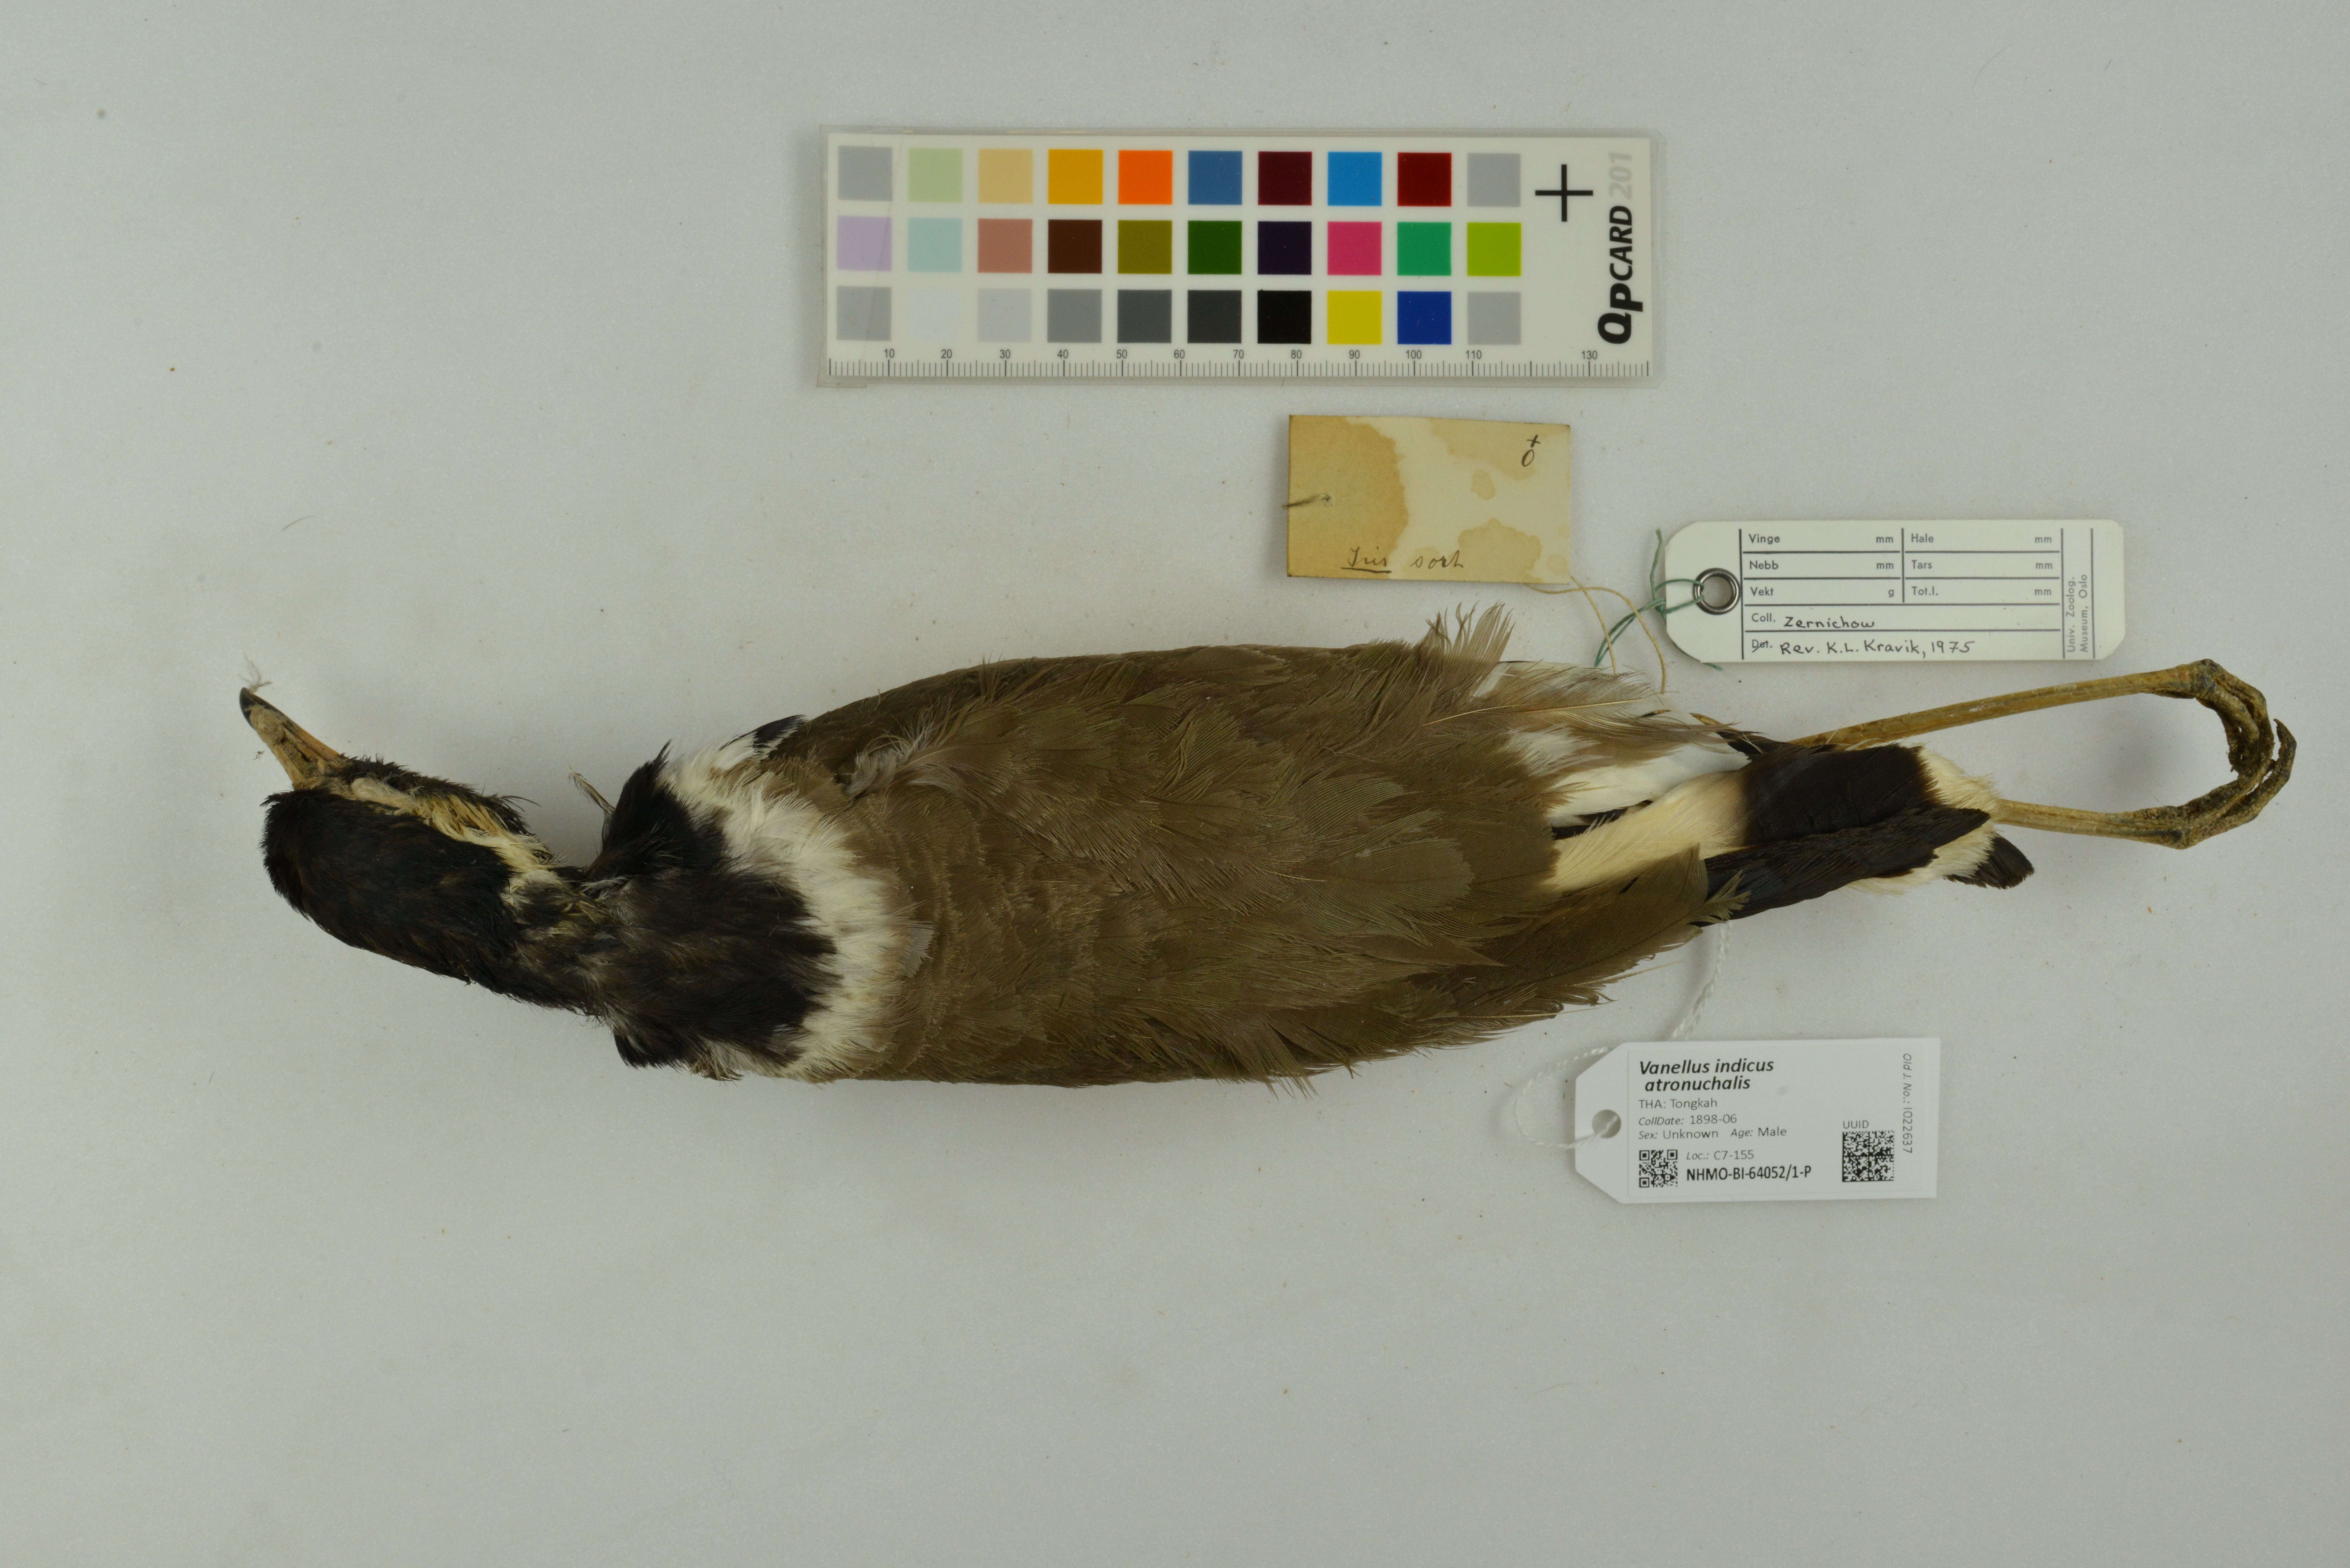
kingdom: Animalia
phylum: Chordata
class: Aves
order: Charadriiformes
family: Charadriidae
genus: Vanellus
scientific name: Vanellus indicus
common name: Red-wattled lapwing
